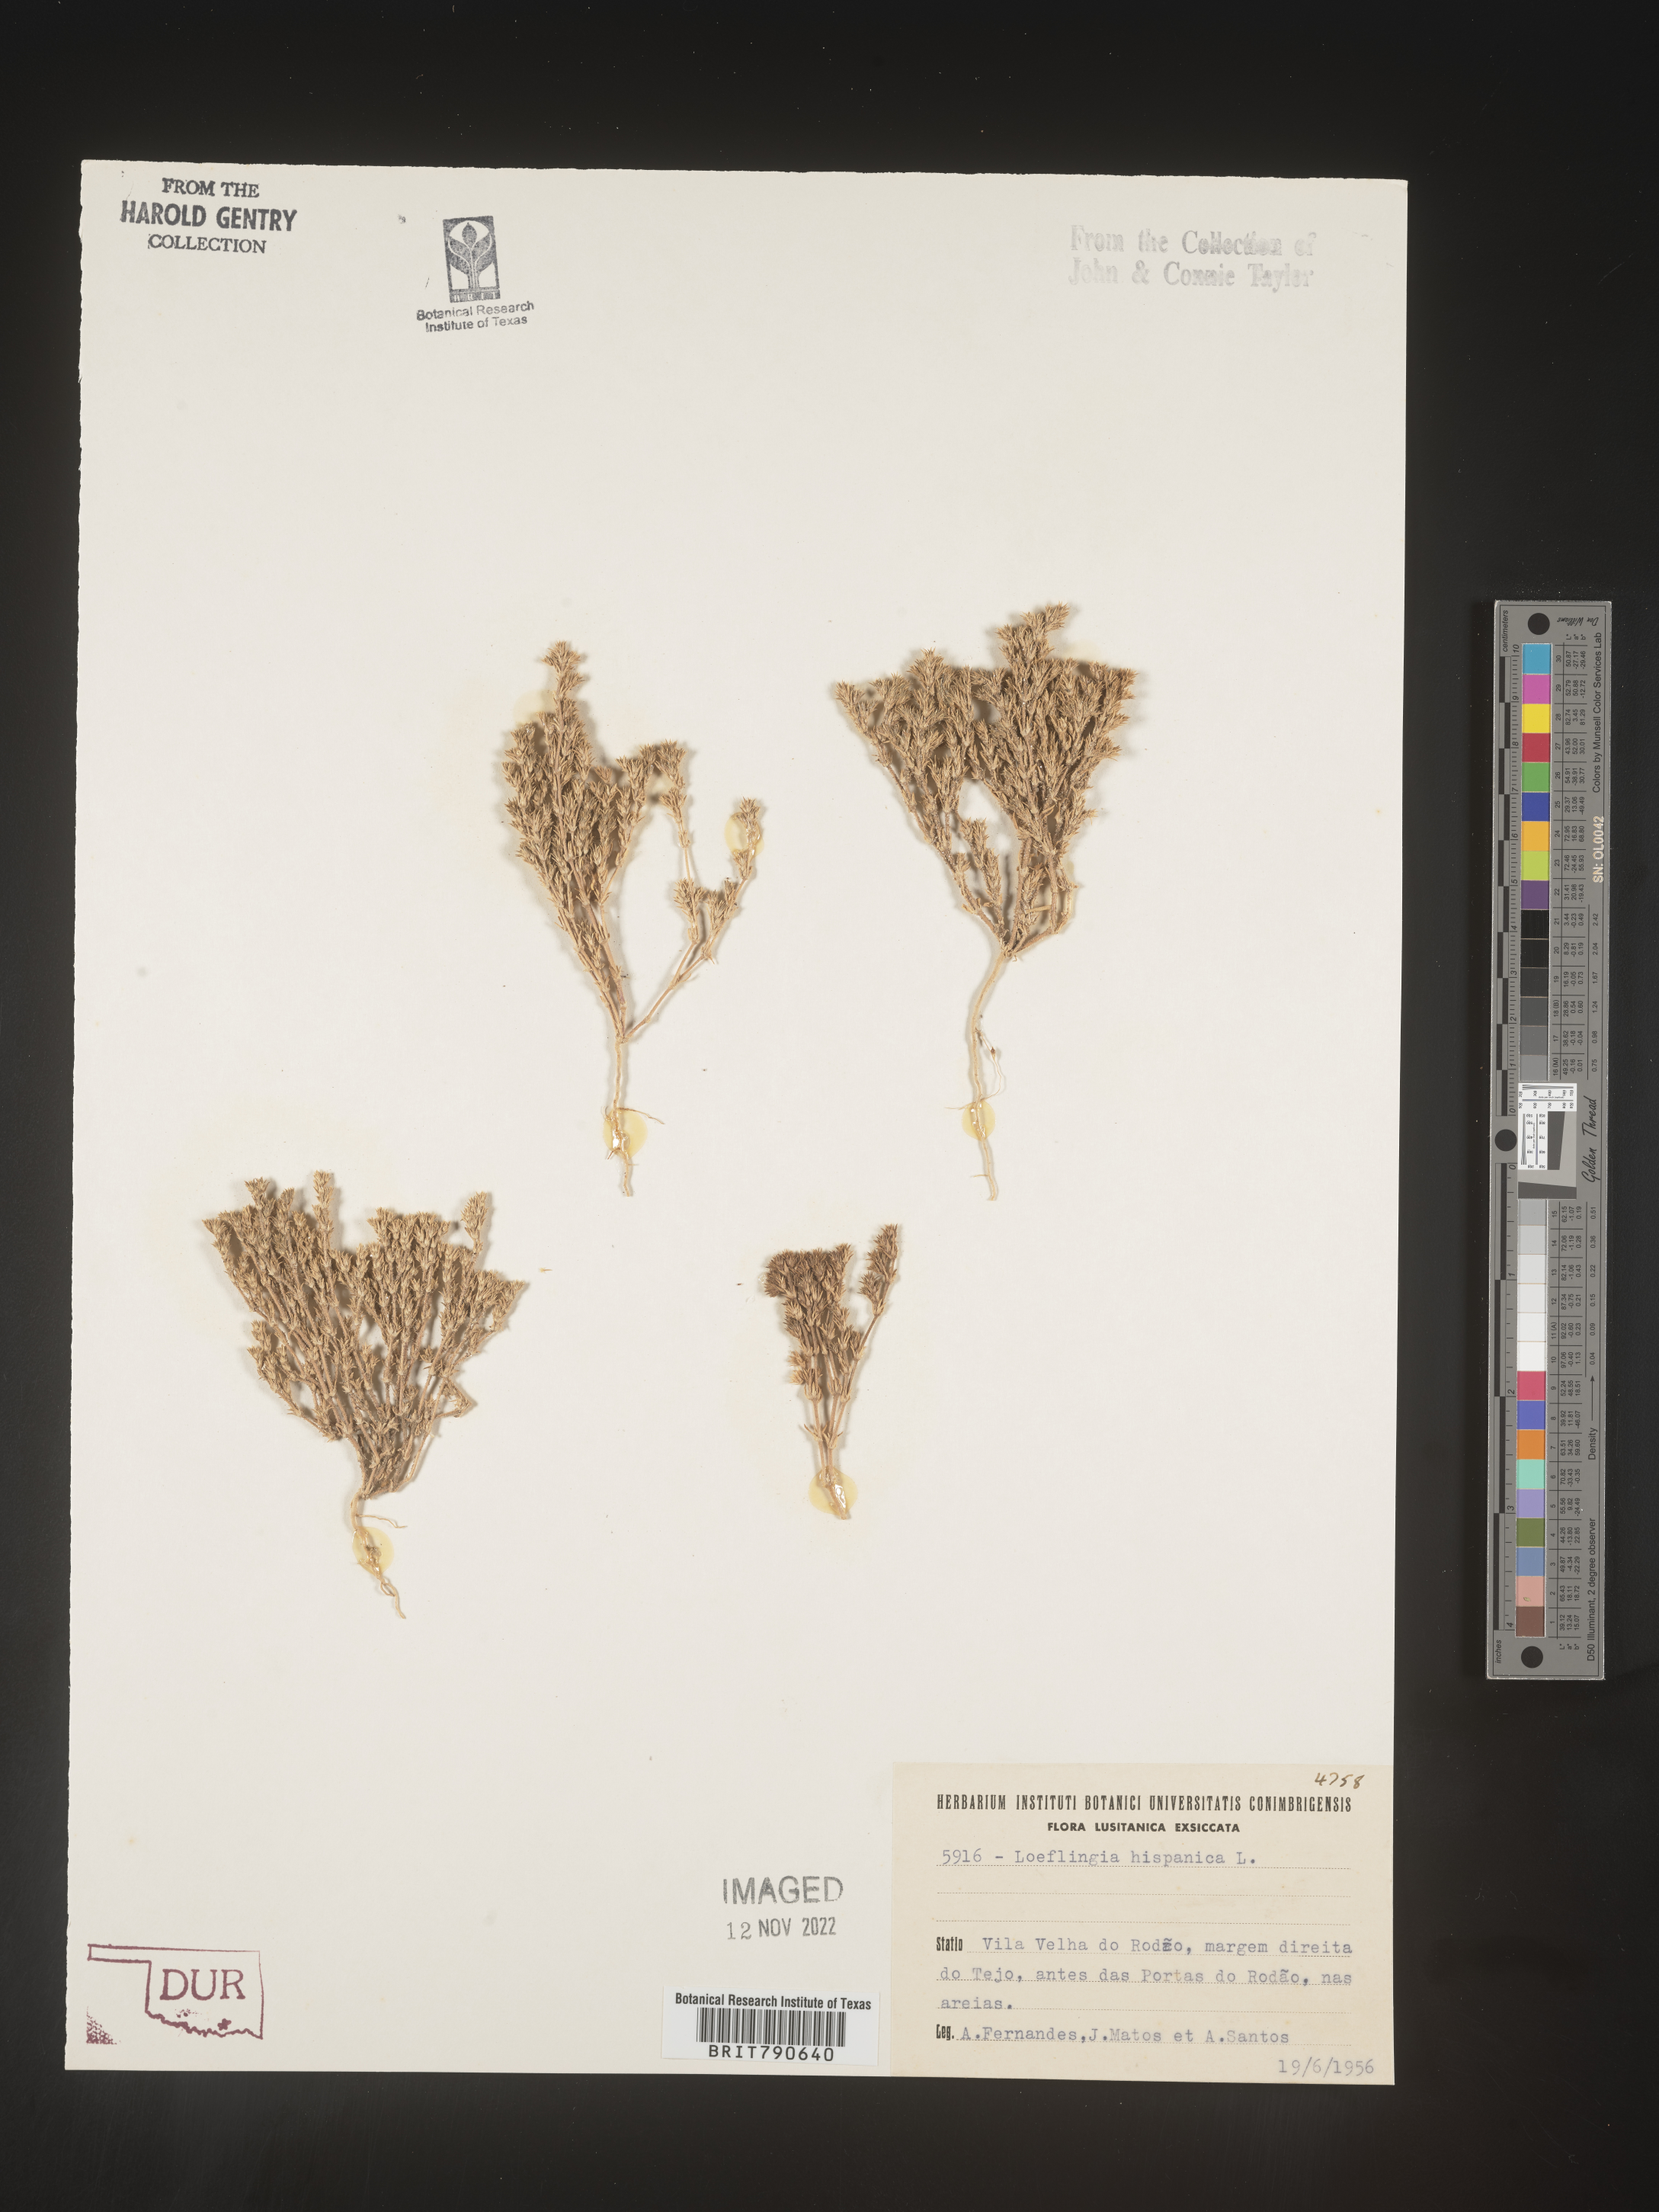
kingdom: Plantae
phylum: Tracheophyta
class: Magnoliopsida
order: Caryophyllales
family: Caryophyllaceae
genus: Loeflingia
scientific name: Loeflingia
